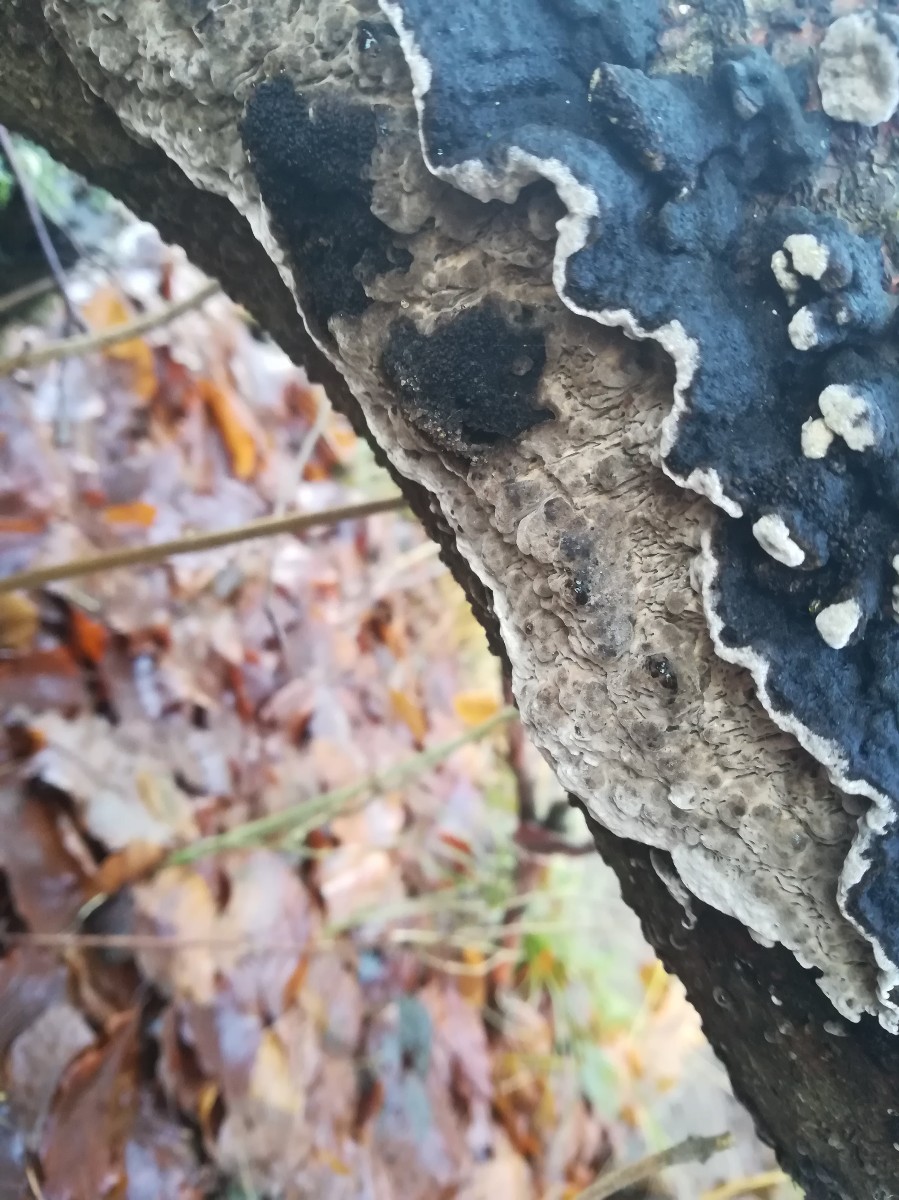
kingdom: Fungi
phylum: Basidiomycota
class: Agaricomycetes
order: Polyporales
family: Polyporaceae
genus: Podofomes
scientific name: Podofomes mollis
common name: blød begporesvamp
